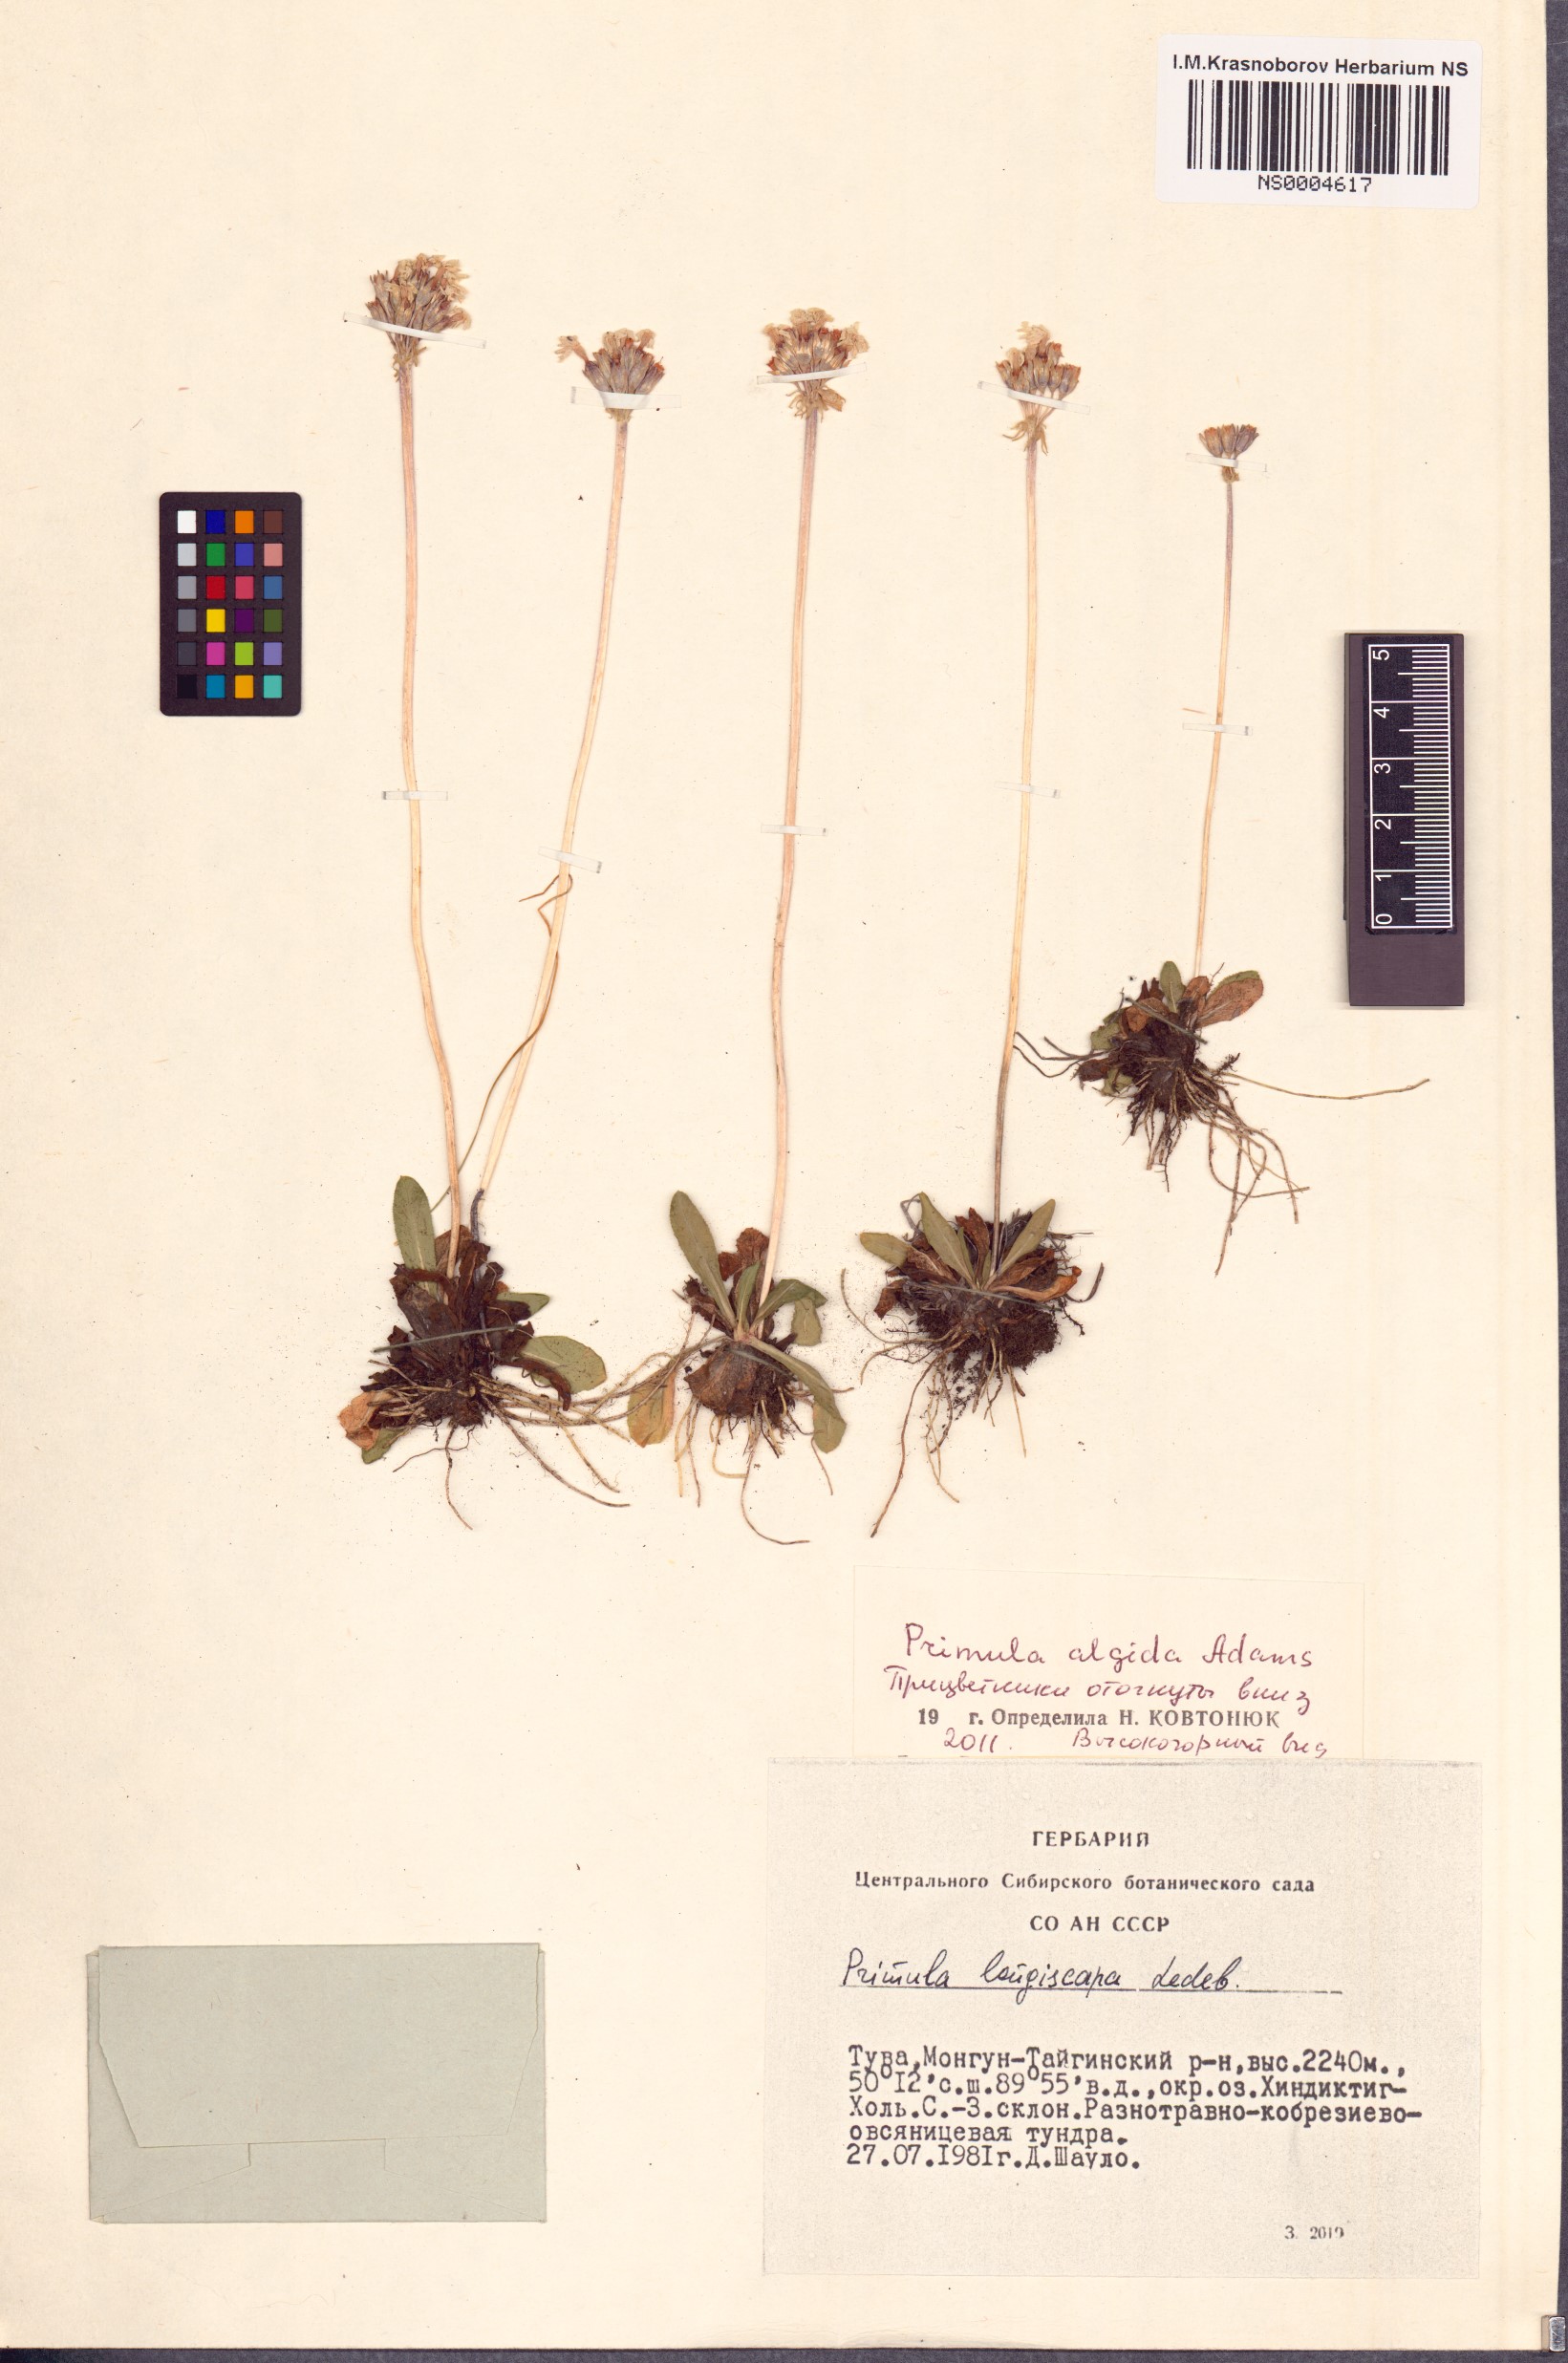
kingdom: Plantae
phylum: Tracheophyta
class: Magnoliopsida
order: Ericales
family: Primulaceae
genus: Primula
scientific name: Primula algida
